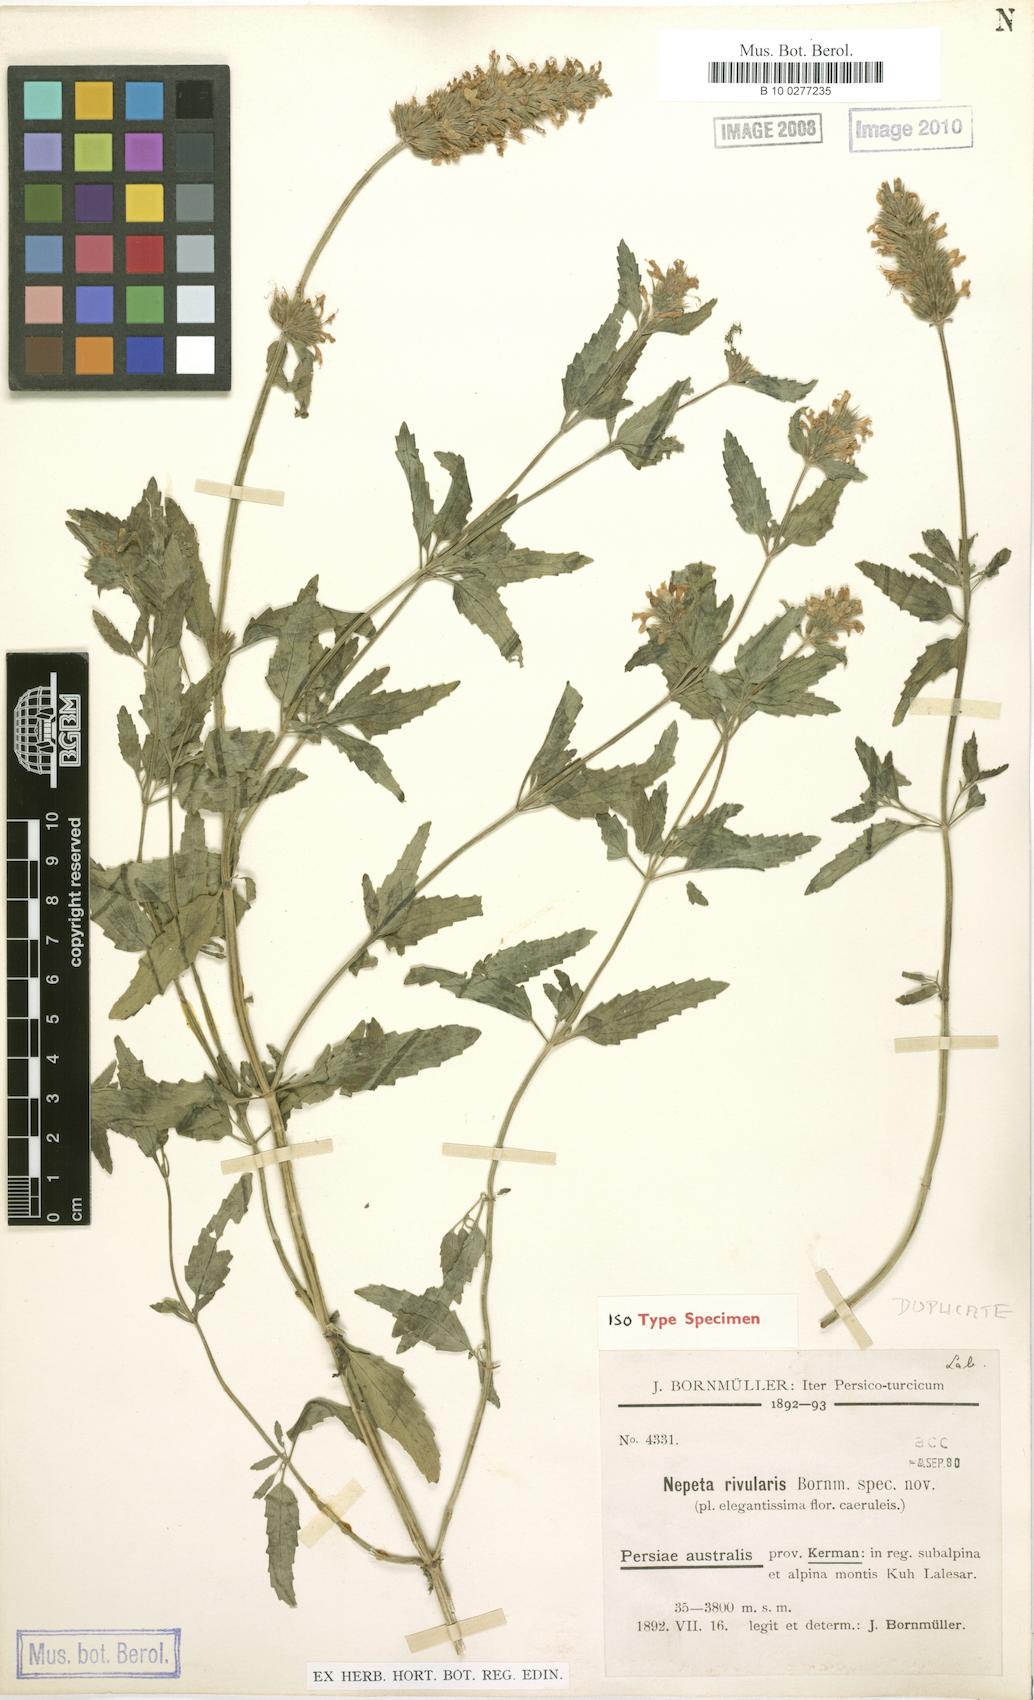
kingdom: Plantae
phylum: Tracheophyta
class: Magnoliopsida
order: Lamiales
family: Lamiaceae
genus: Nepeta
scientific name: Nepeta rivularis
